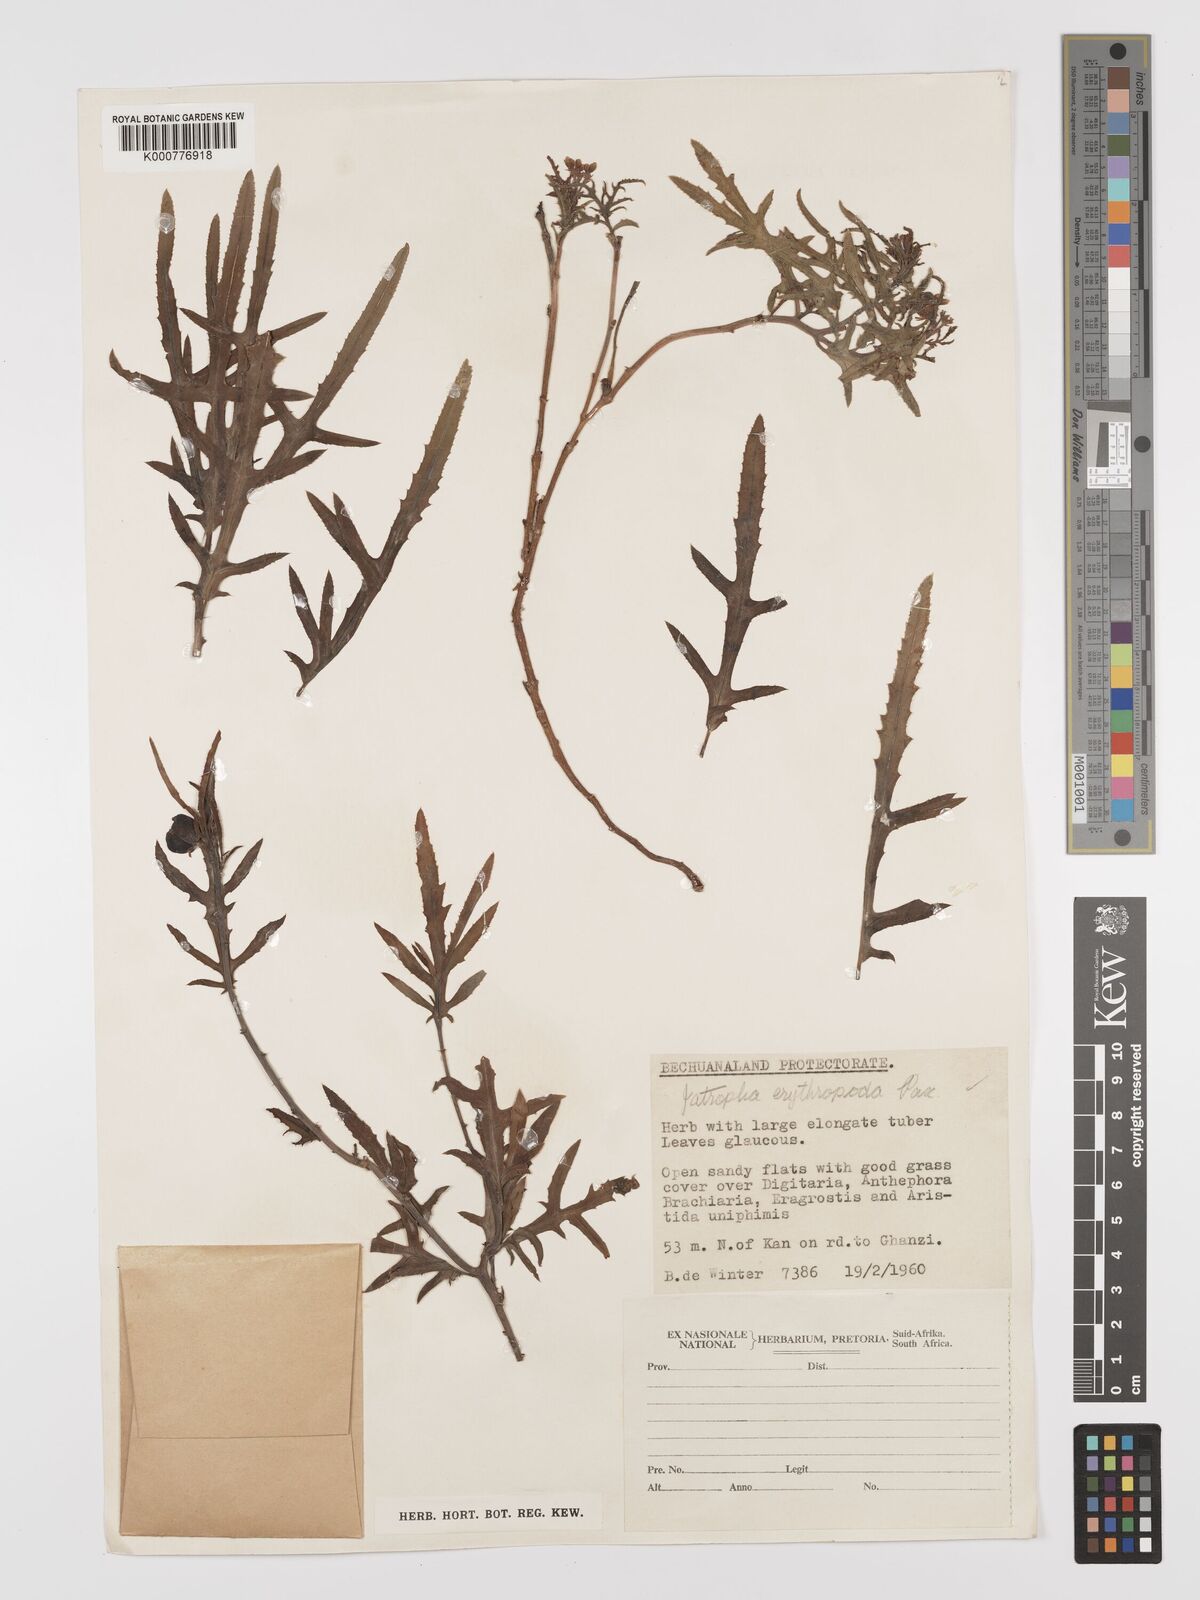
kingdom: Plantae
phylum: Tracheophyta
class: Magnoliopsida
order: Malpighiales
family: Euphorbiaceae
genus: Jatropha
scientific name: Jatropha erythropoda
